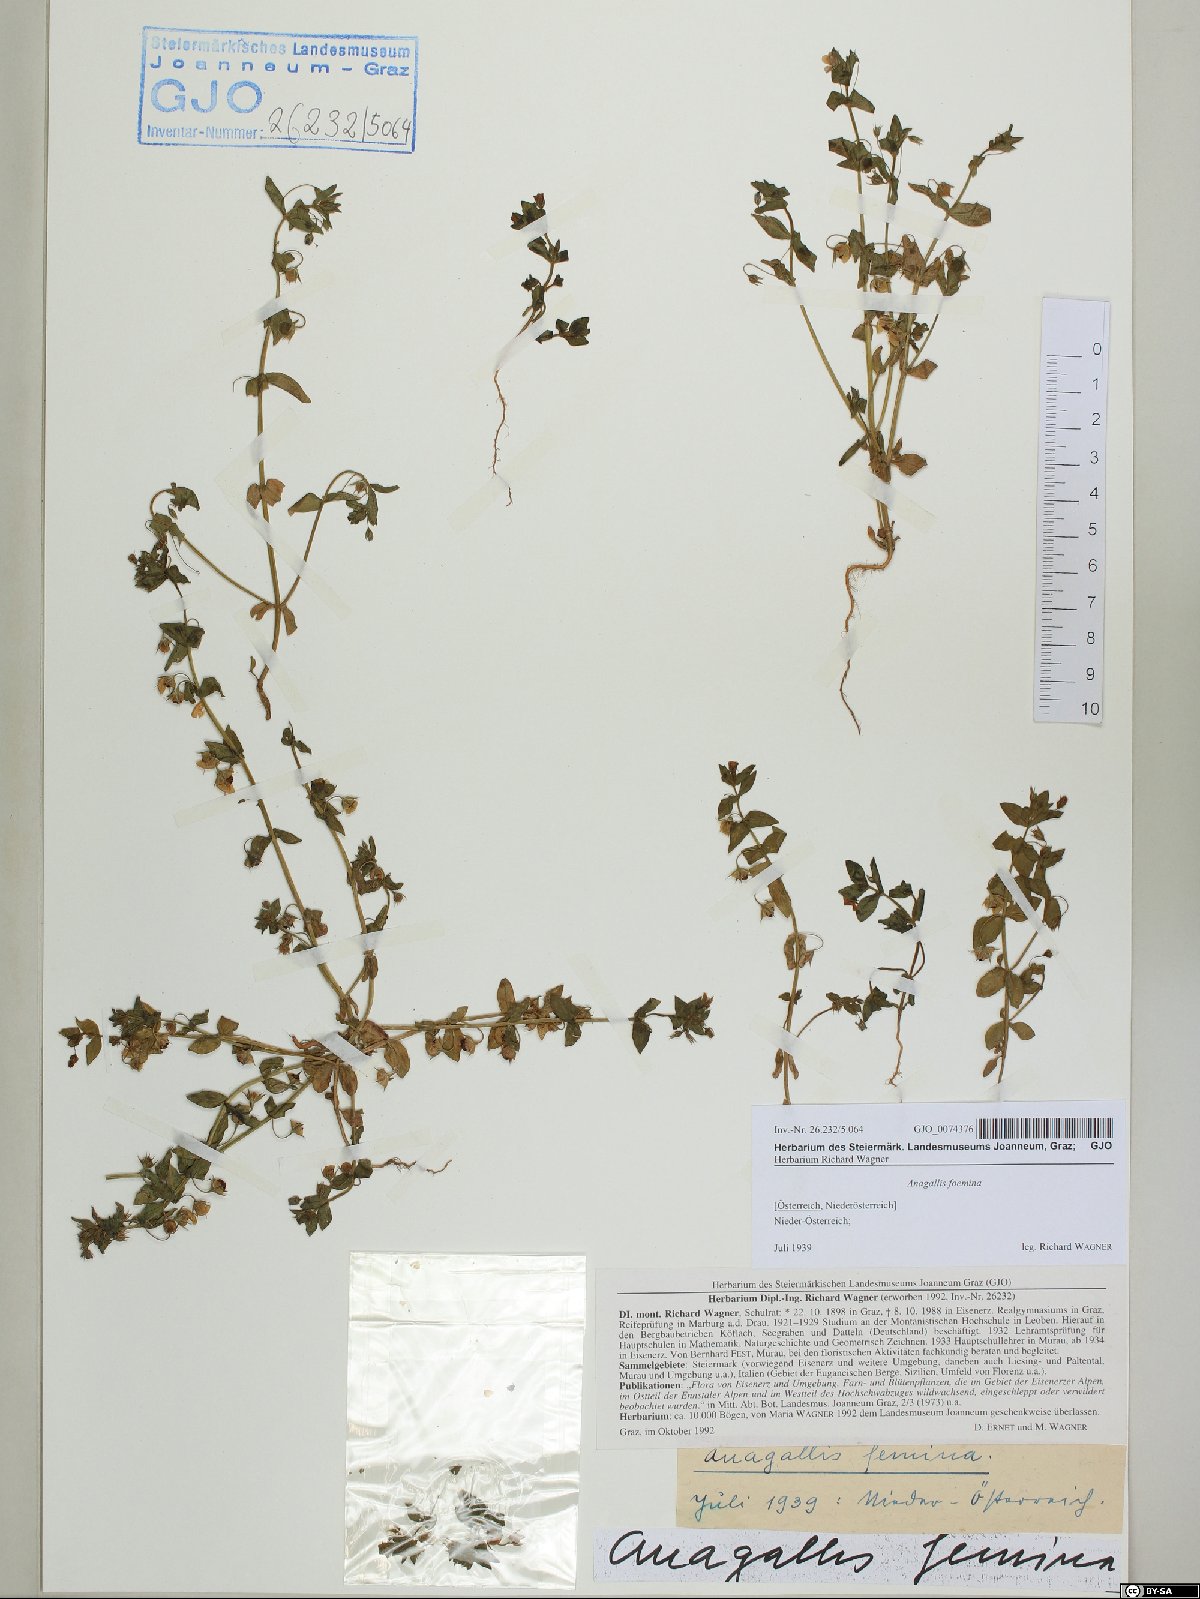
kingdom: Plantae
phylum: Tracheophyta
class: Magnoliopsida
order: Ericales
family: Primulaceae
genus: Lysimachia
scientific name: Lysimachia foemina
